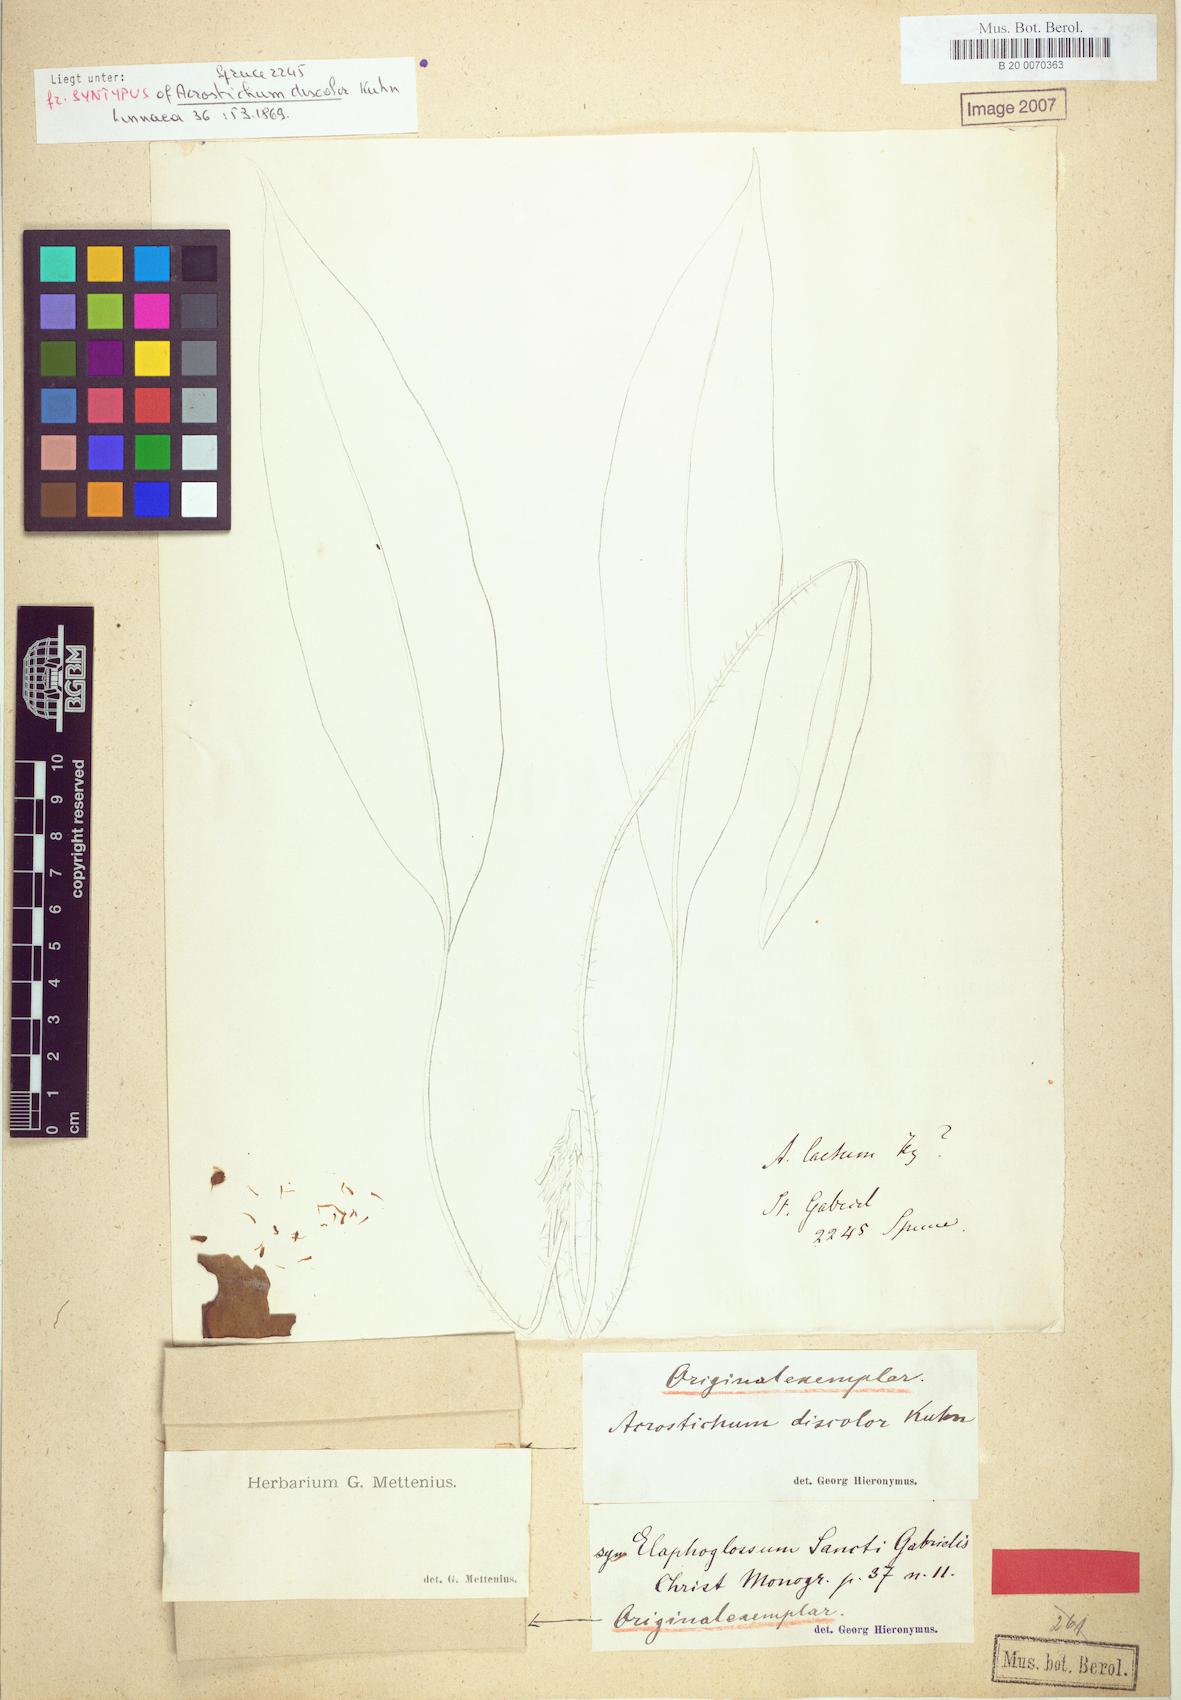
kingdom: Plantae
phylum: Tracheophyta
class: Polypodiopsida
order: Polypodiales
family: Dryopteridaceae
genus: Elaphoglossum
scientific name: Elaphoglossum discolor
